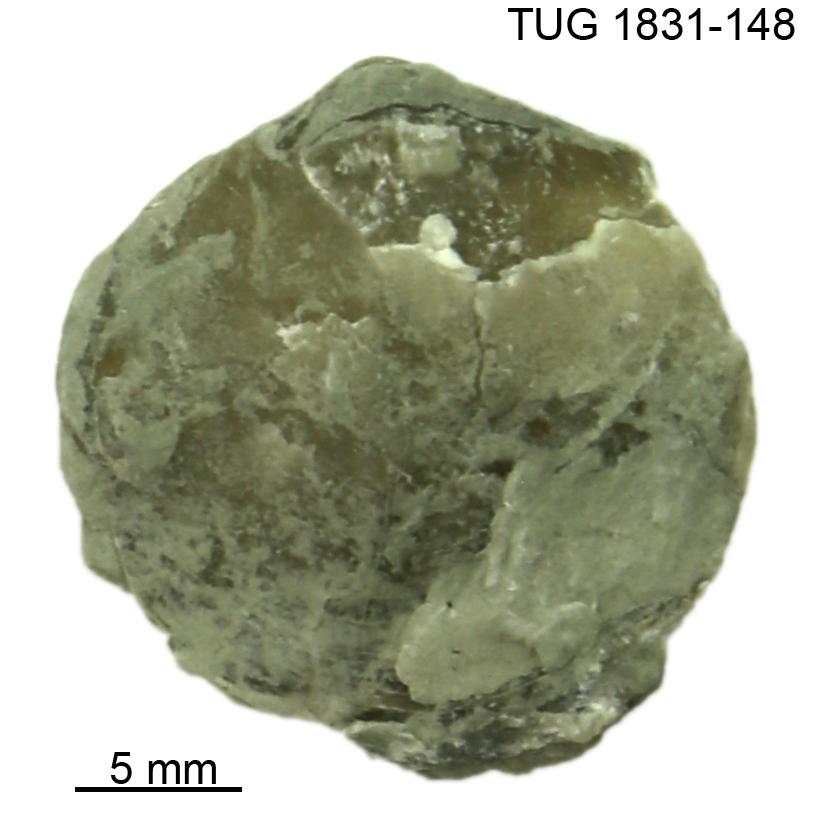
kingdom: Animalia
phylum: Brachiopoda
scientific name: Brachiopoda
